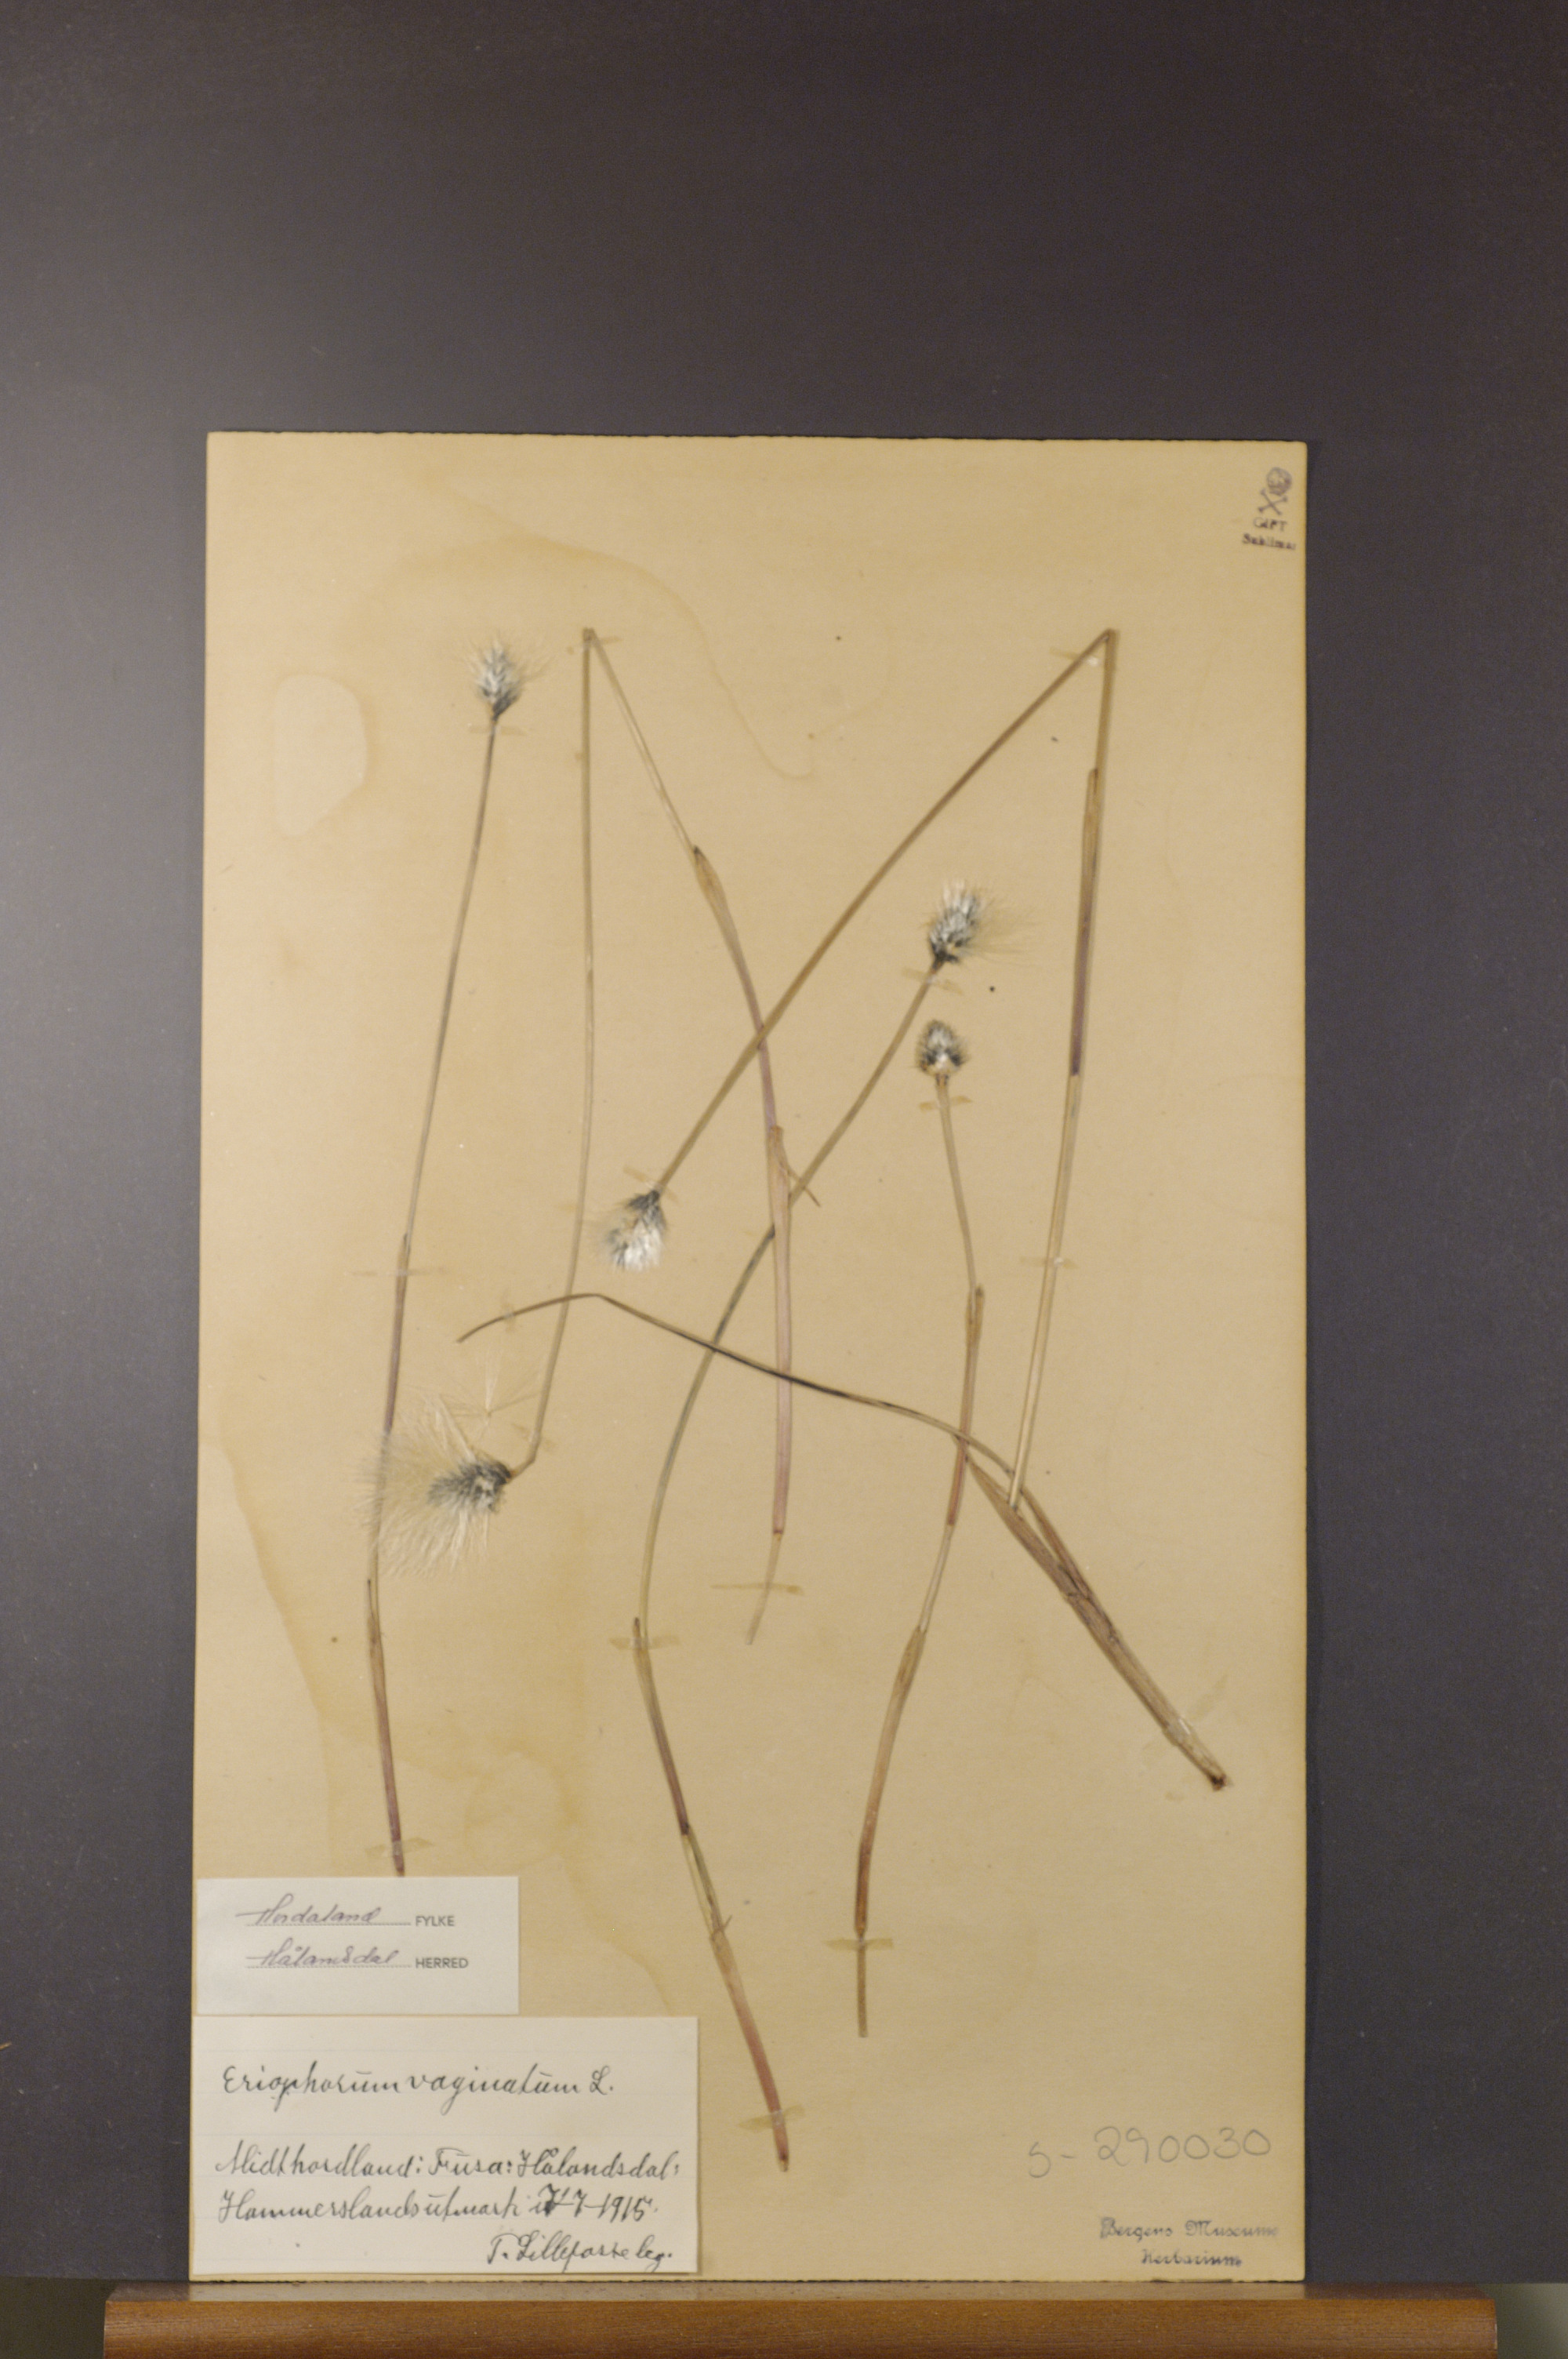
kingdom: Plantae
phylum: Tracheophyta
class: Liliopsida
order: Poales
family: Cyperaceae
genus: Eriophorum
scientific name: Eriophorum vaginatum
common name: Hare's-tail cottongrass
